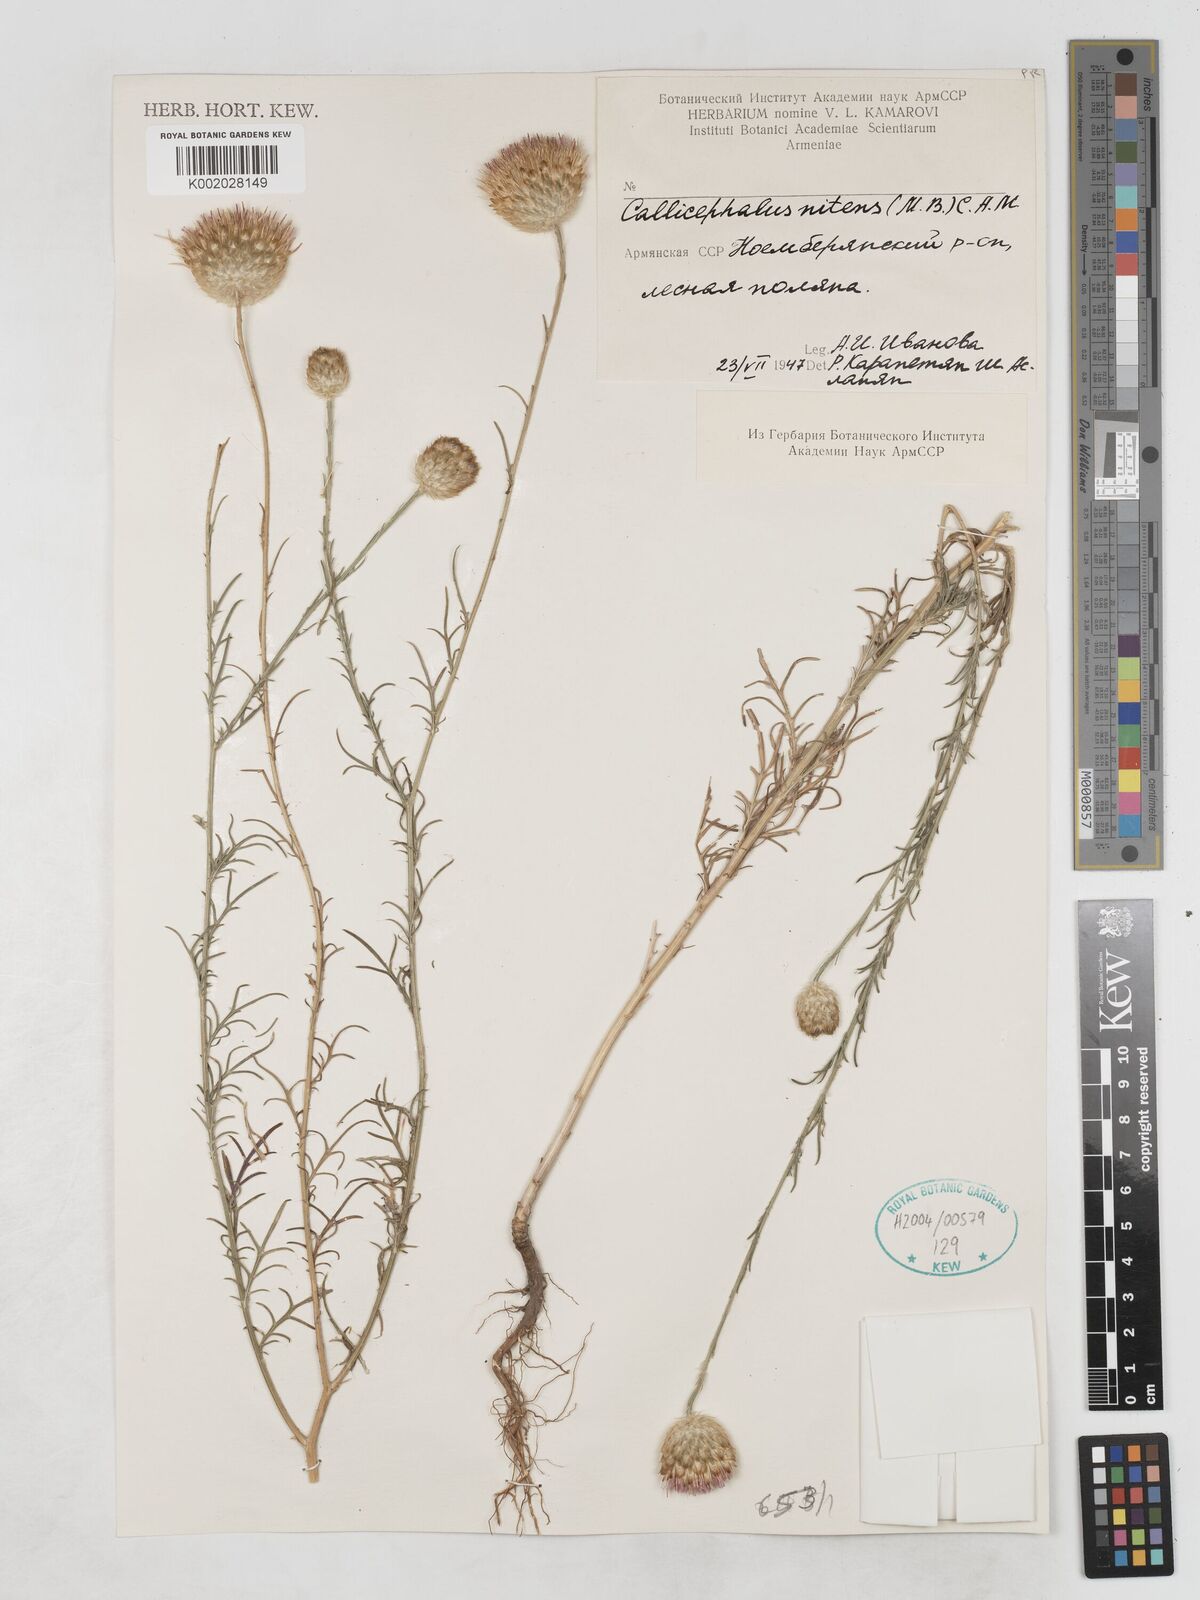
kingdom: Plantae
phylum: Tracheophyta
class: Magnoliopsida
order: Asterales
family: Asteraceae
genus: Callicephalus
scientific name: Callicephalus nitens
